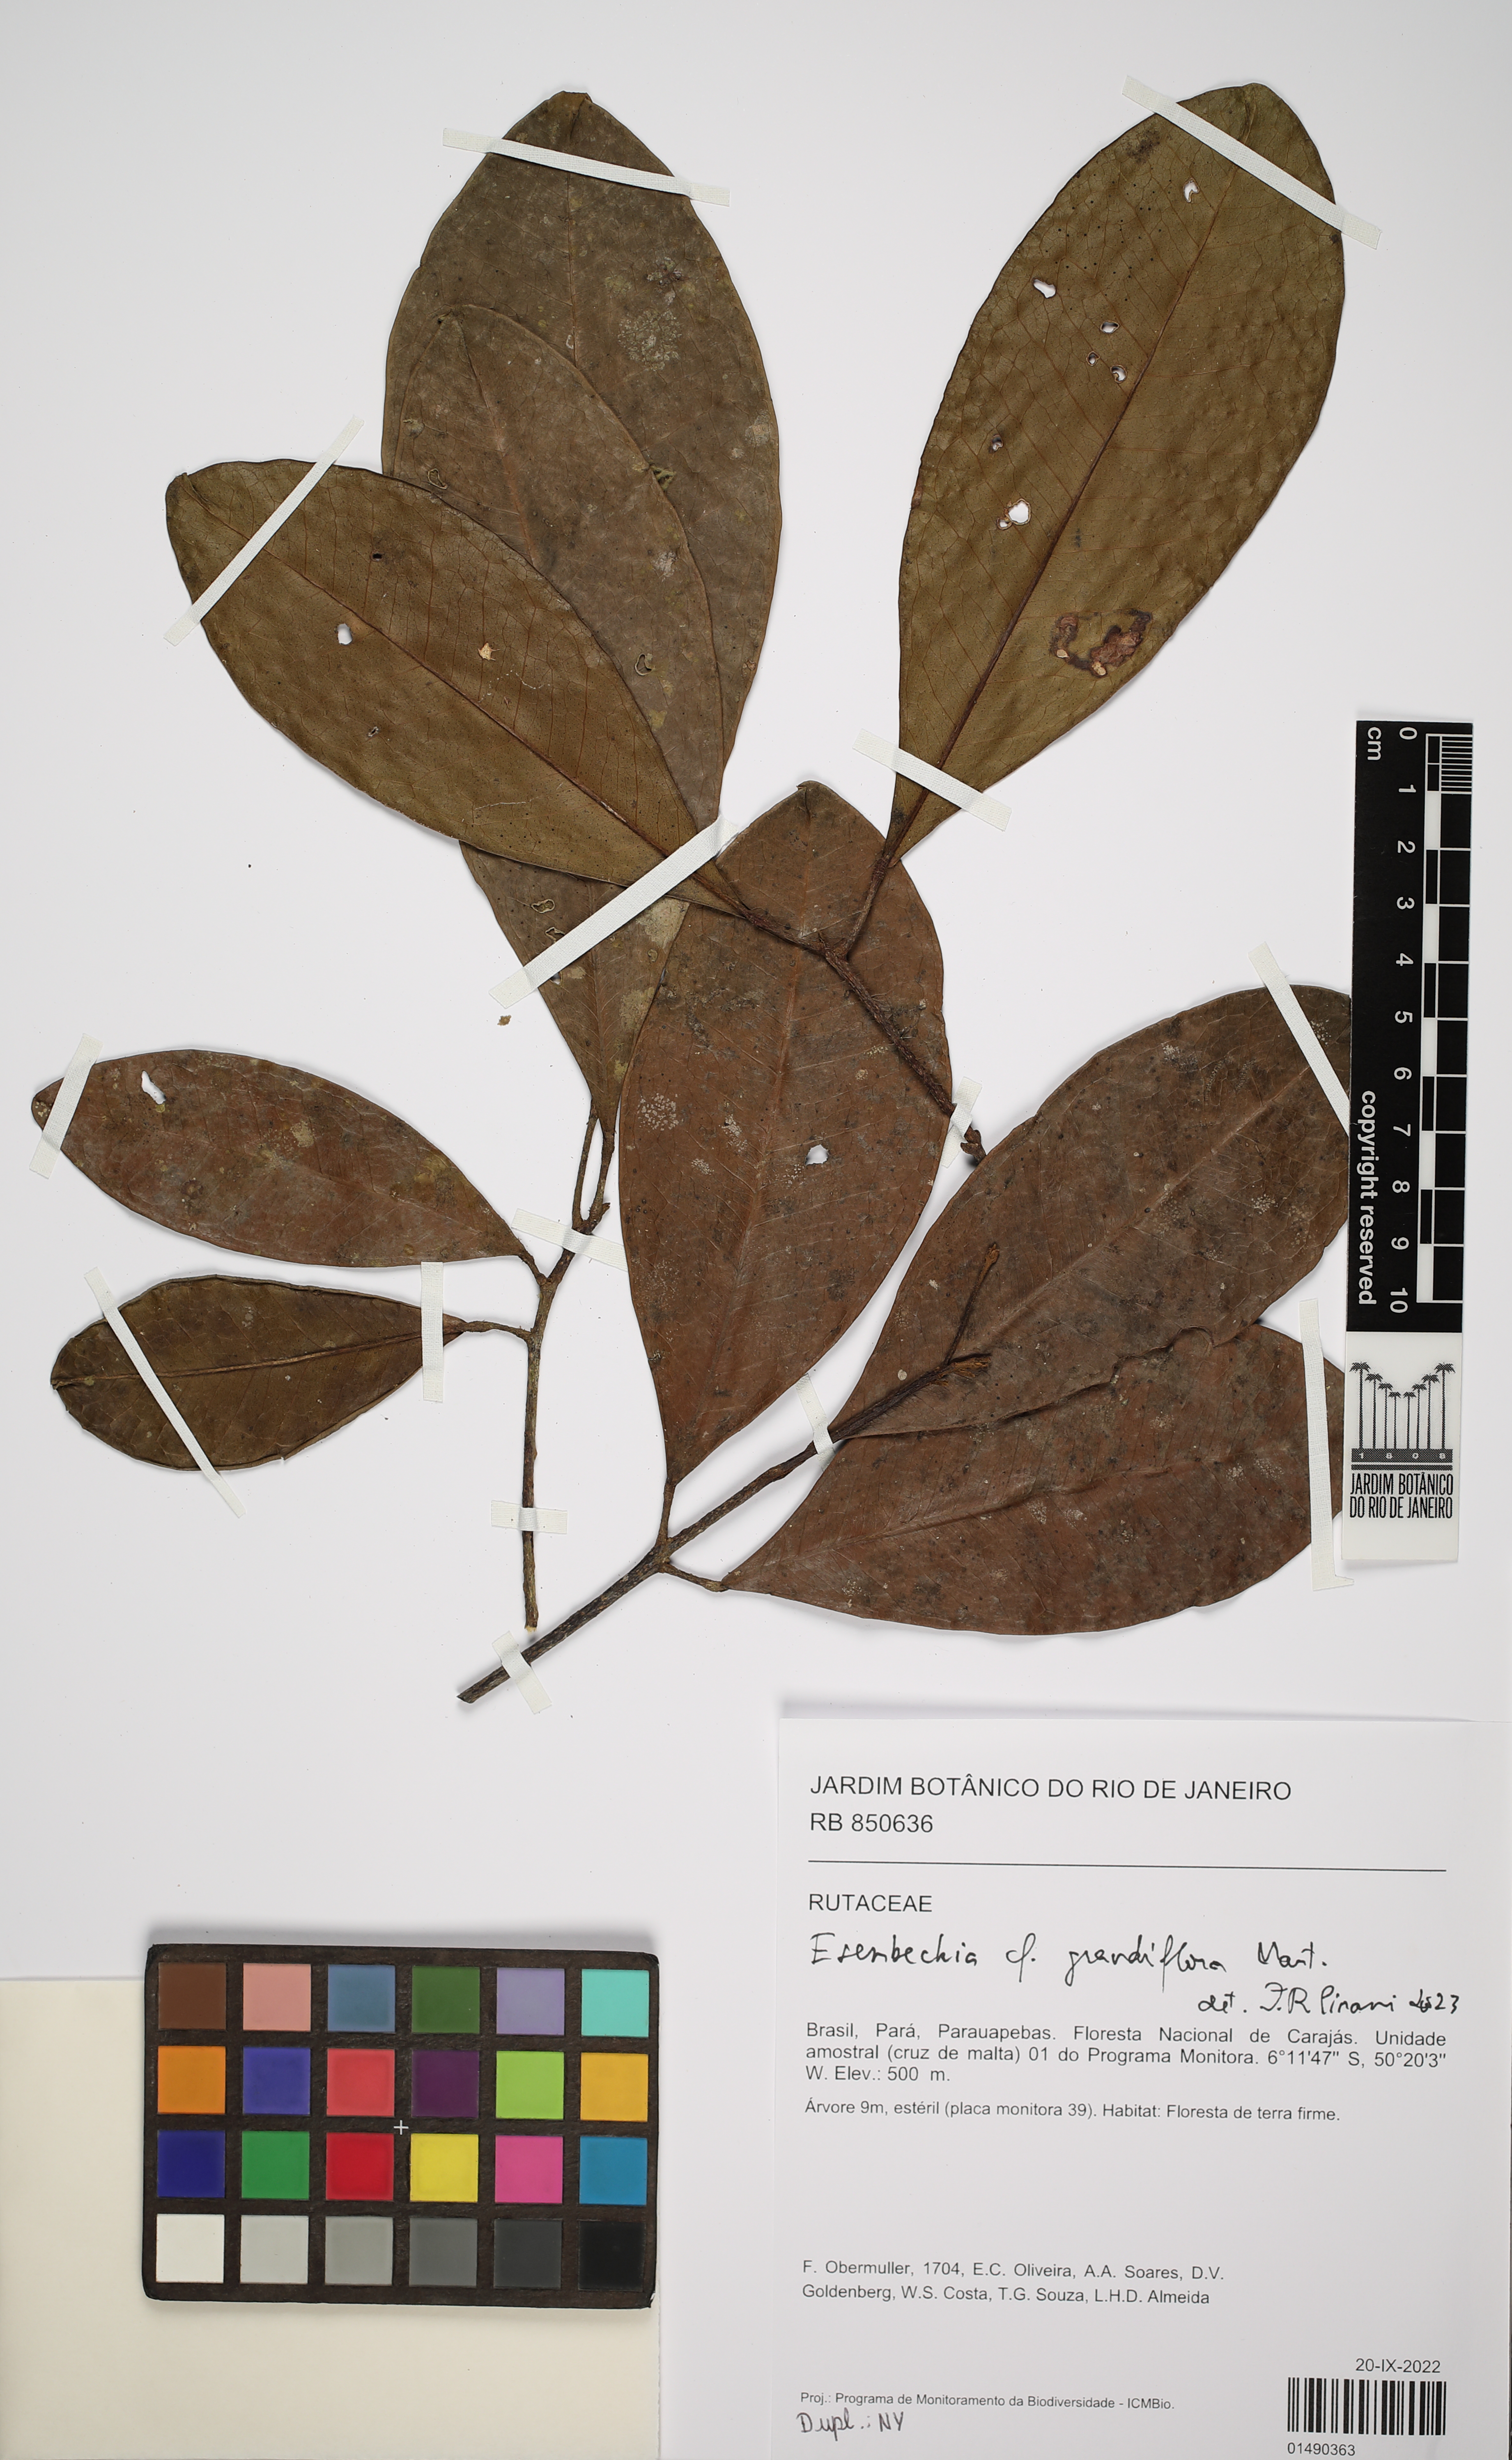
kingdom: Plantae
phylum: Tracheophyta
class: Magnoliopsida
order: Sapindales
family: Rutaceae
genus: Esenbeckia
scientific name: Esenbeckia grandiflora
